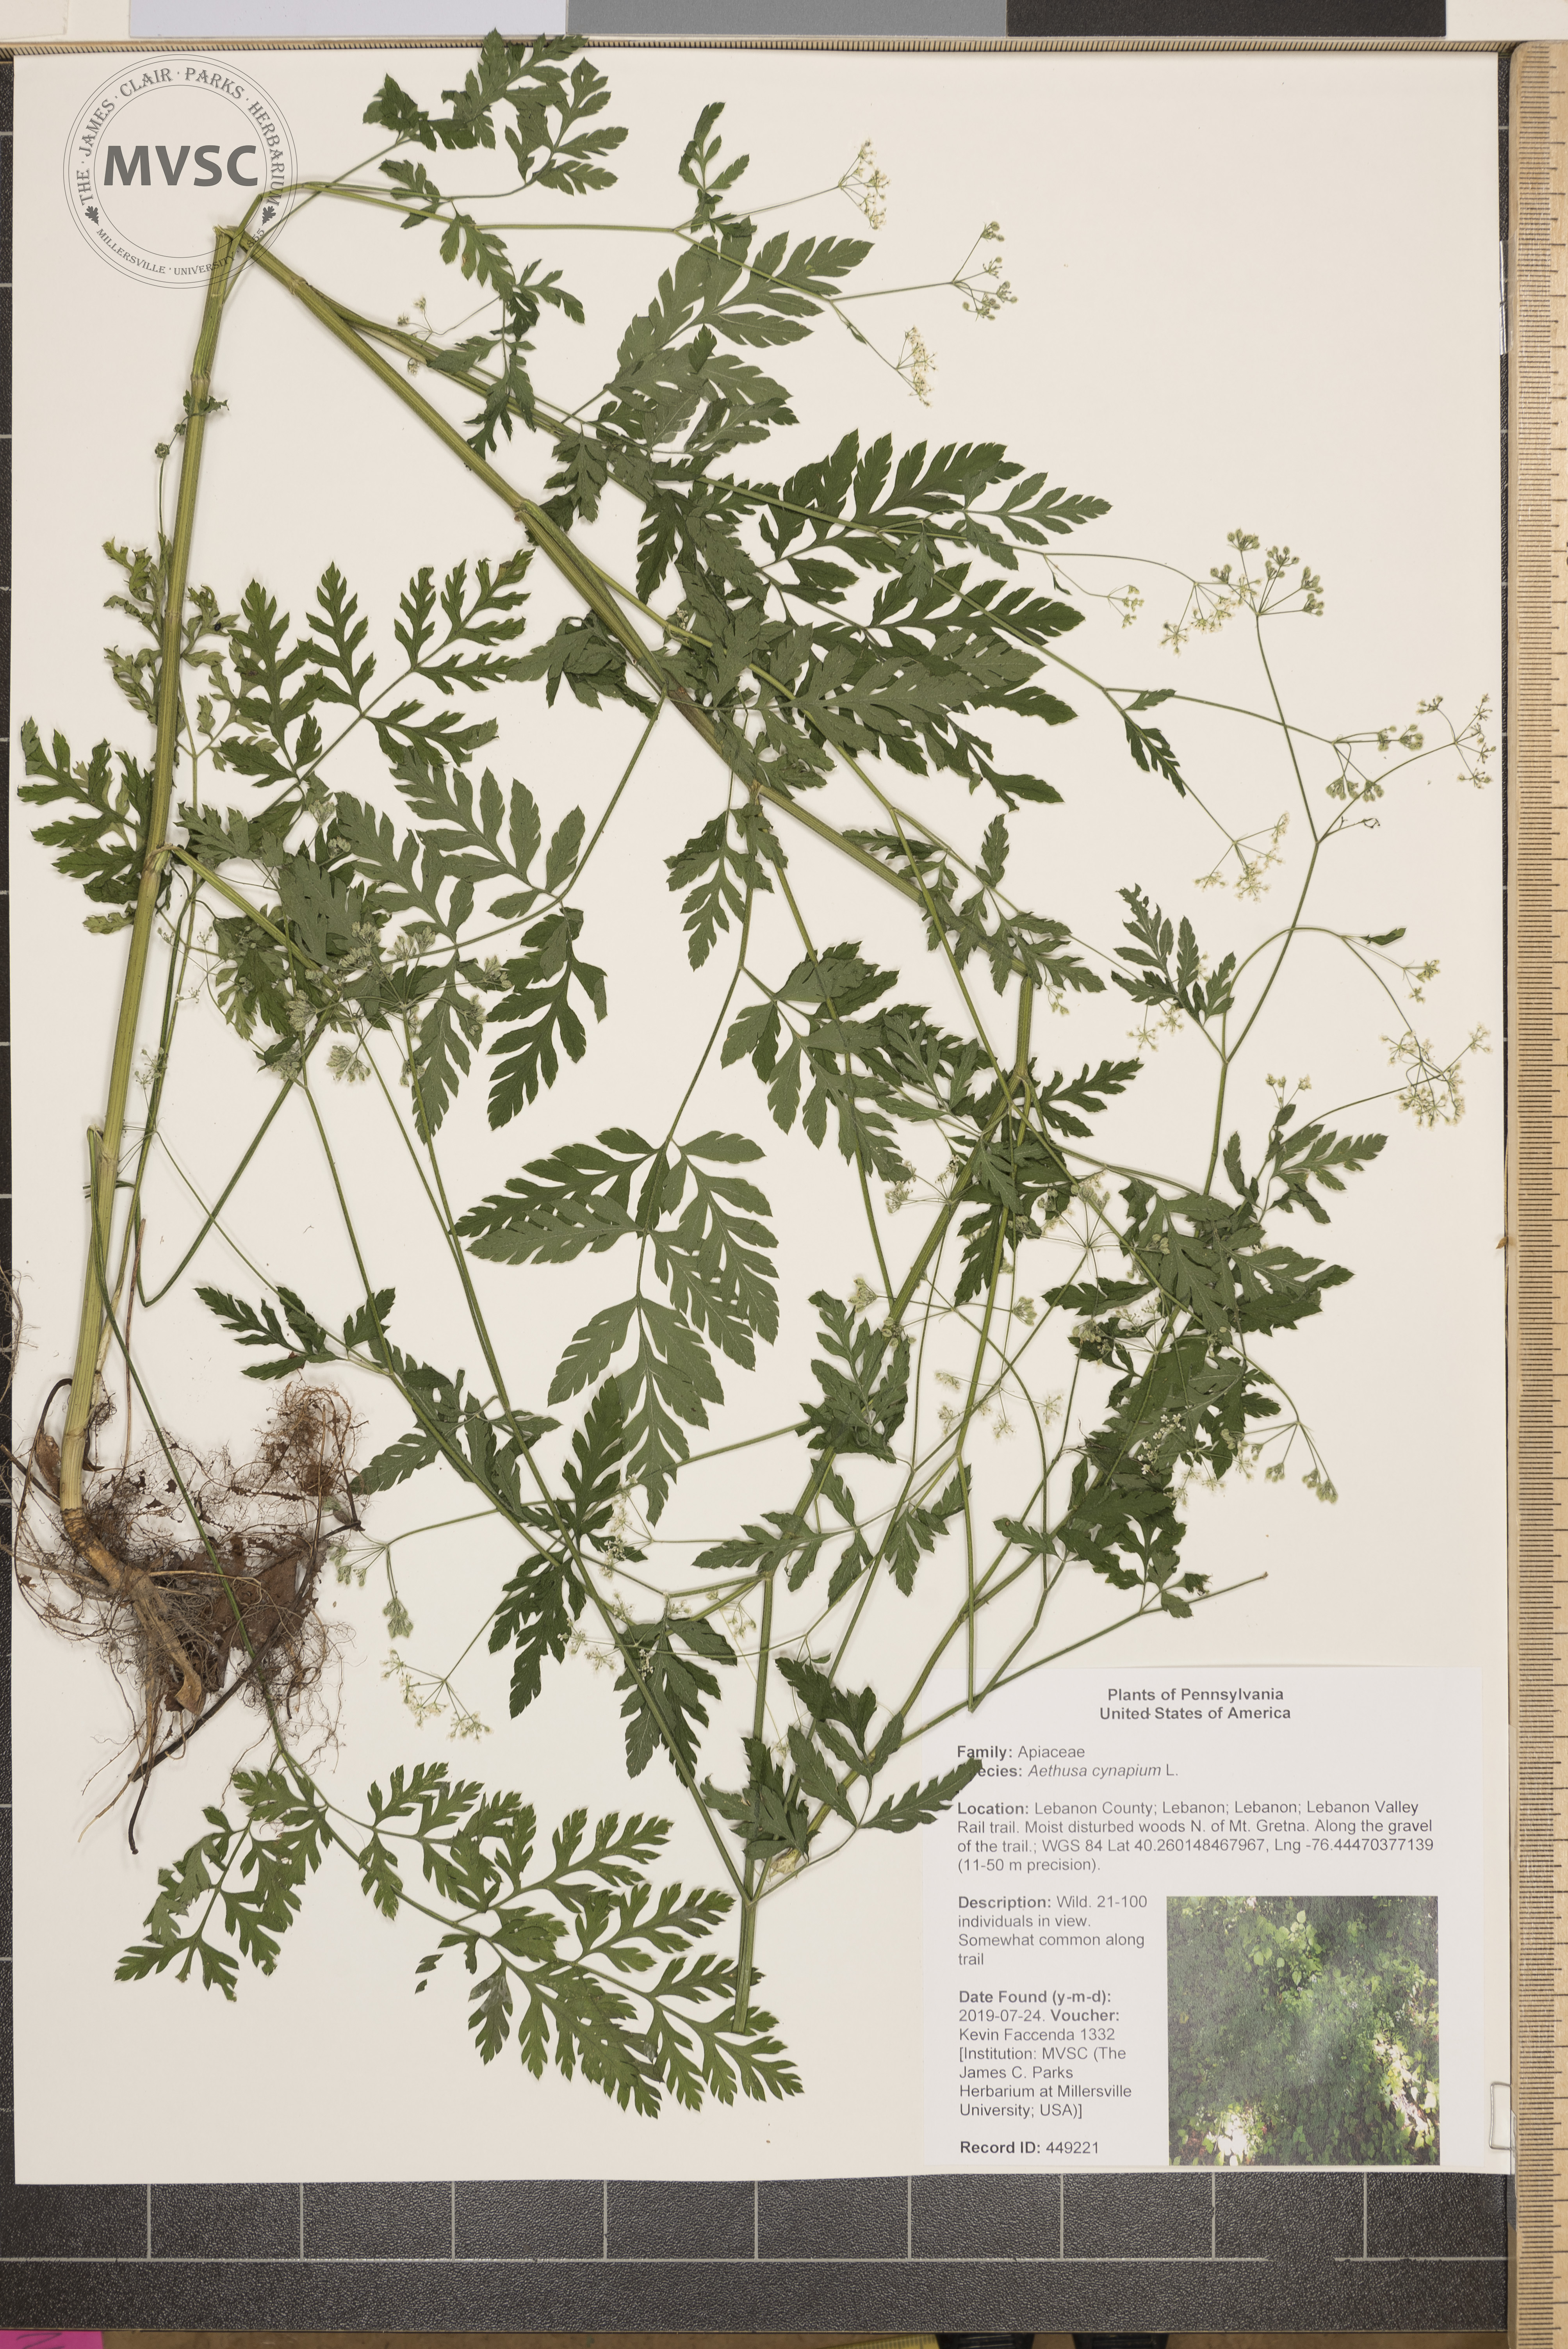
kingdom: Plantae
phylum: Tracheophyta
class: Magnoliopsida
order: Apiales
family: Apiaceae
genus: Aethusa
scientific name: Aethusa cynapium
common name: Fool's parsley
